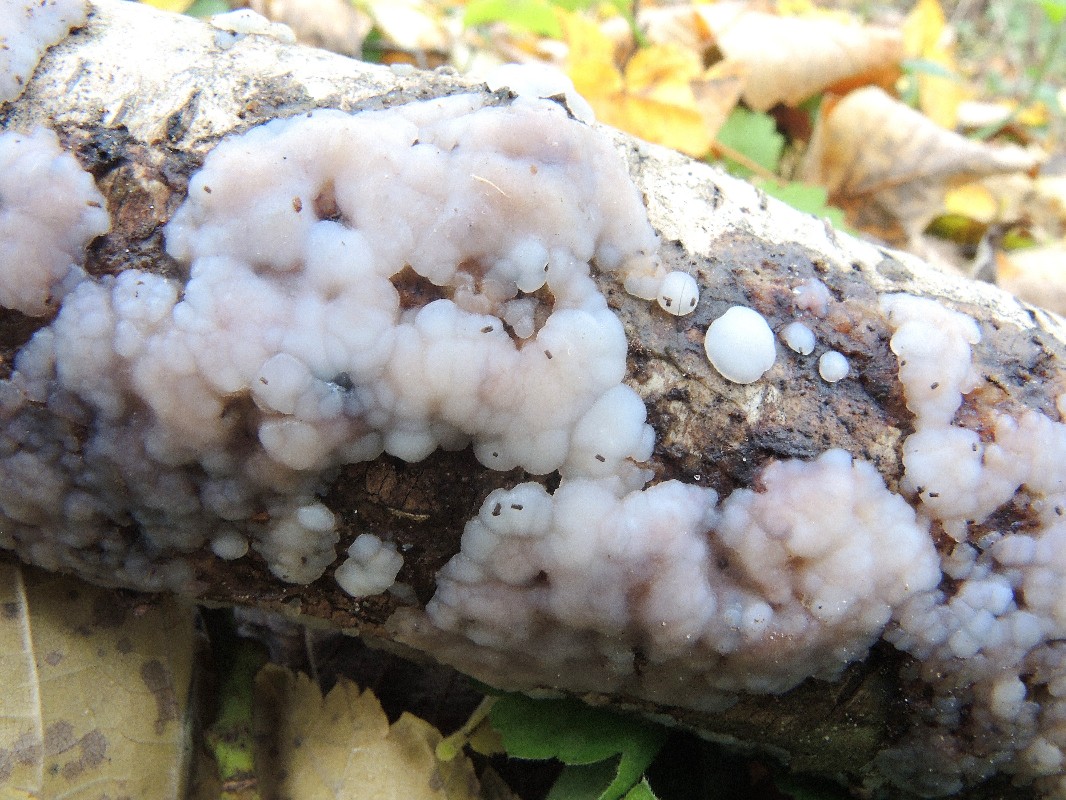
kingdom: Fungi
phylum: Basidiomycota
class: Agaricomycetes
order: Auriculariales
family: Auriculariaceae
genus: Exidia
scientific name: Exidia thuretiana
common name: hvidlig bævretop
